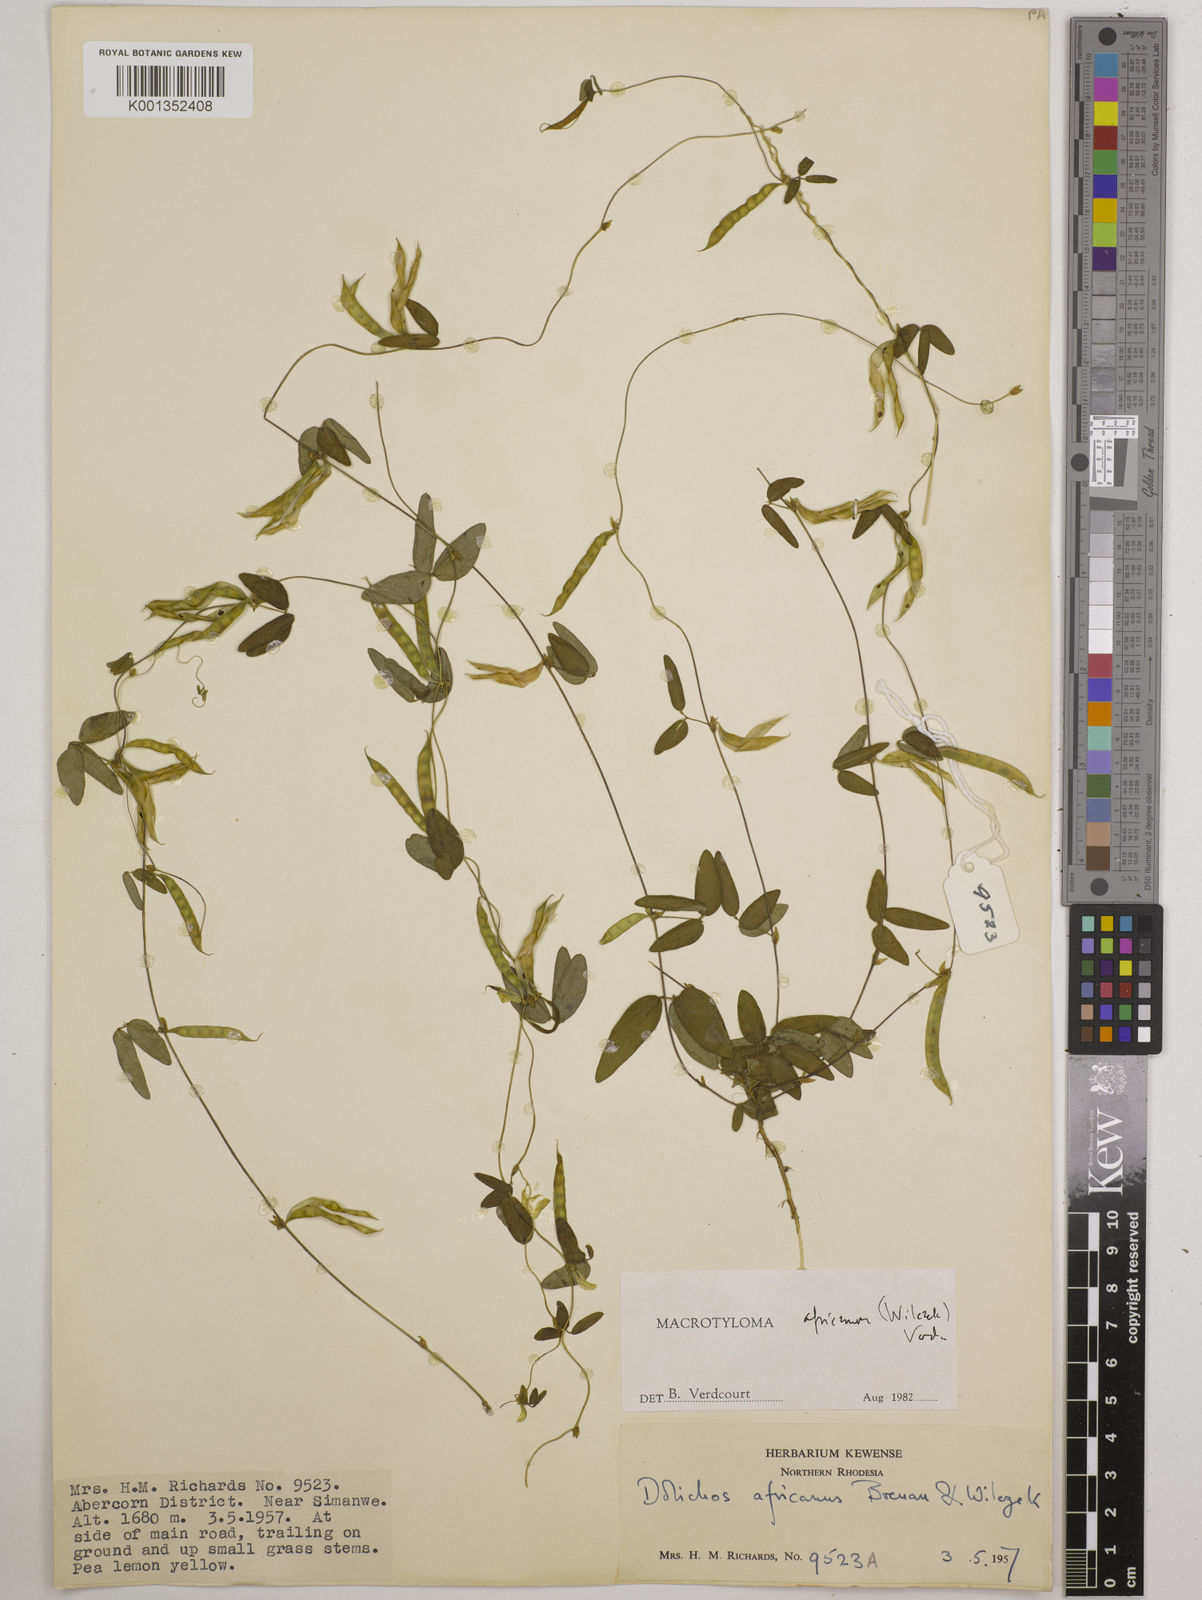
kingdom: Plantae
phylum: Tracheophyta
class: Magnoliopsida
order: Fabales
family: Fabaceae
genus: Macrotyloma
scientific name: Macrotyloma africanum
